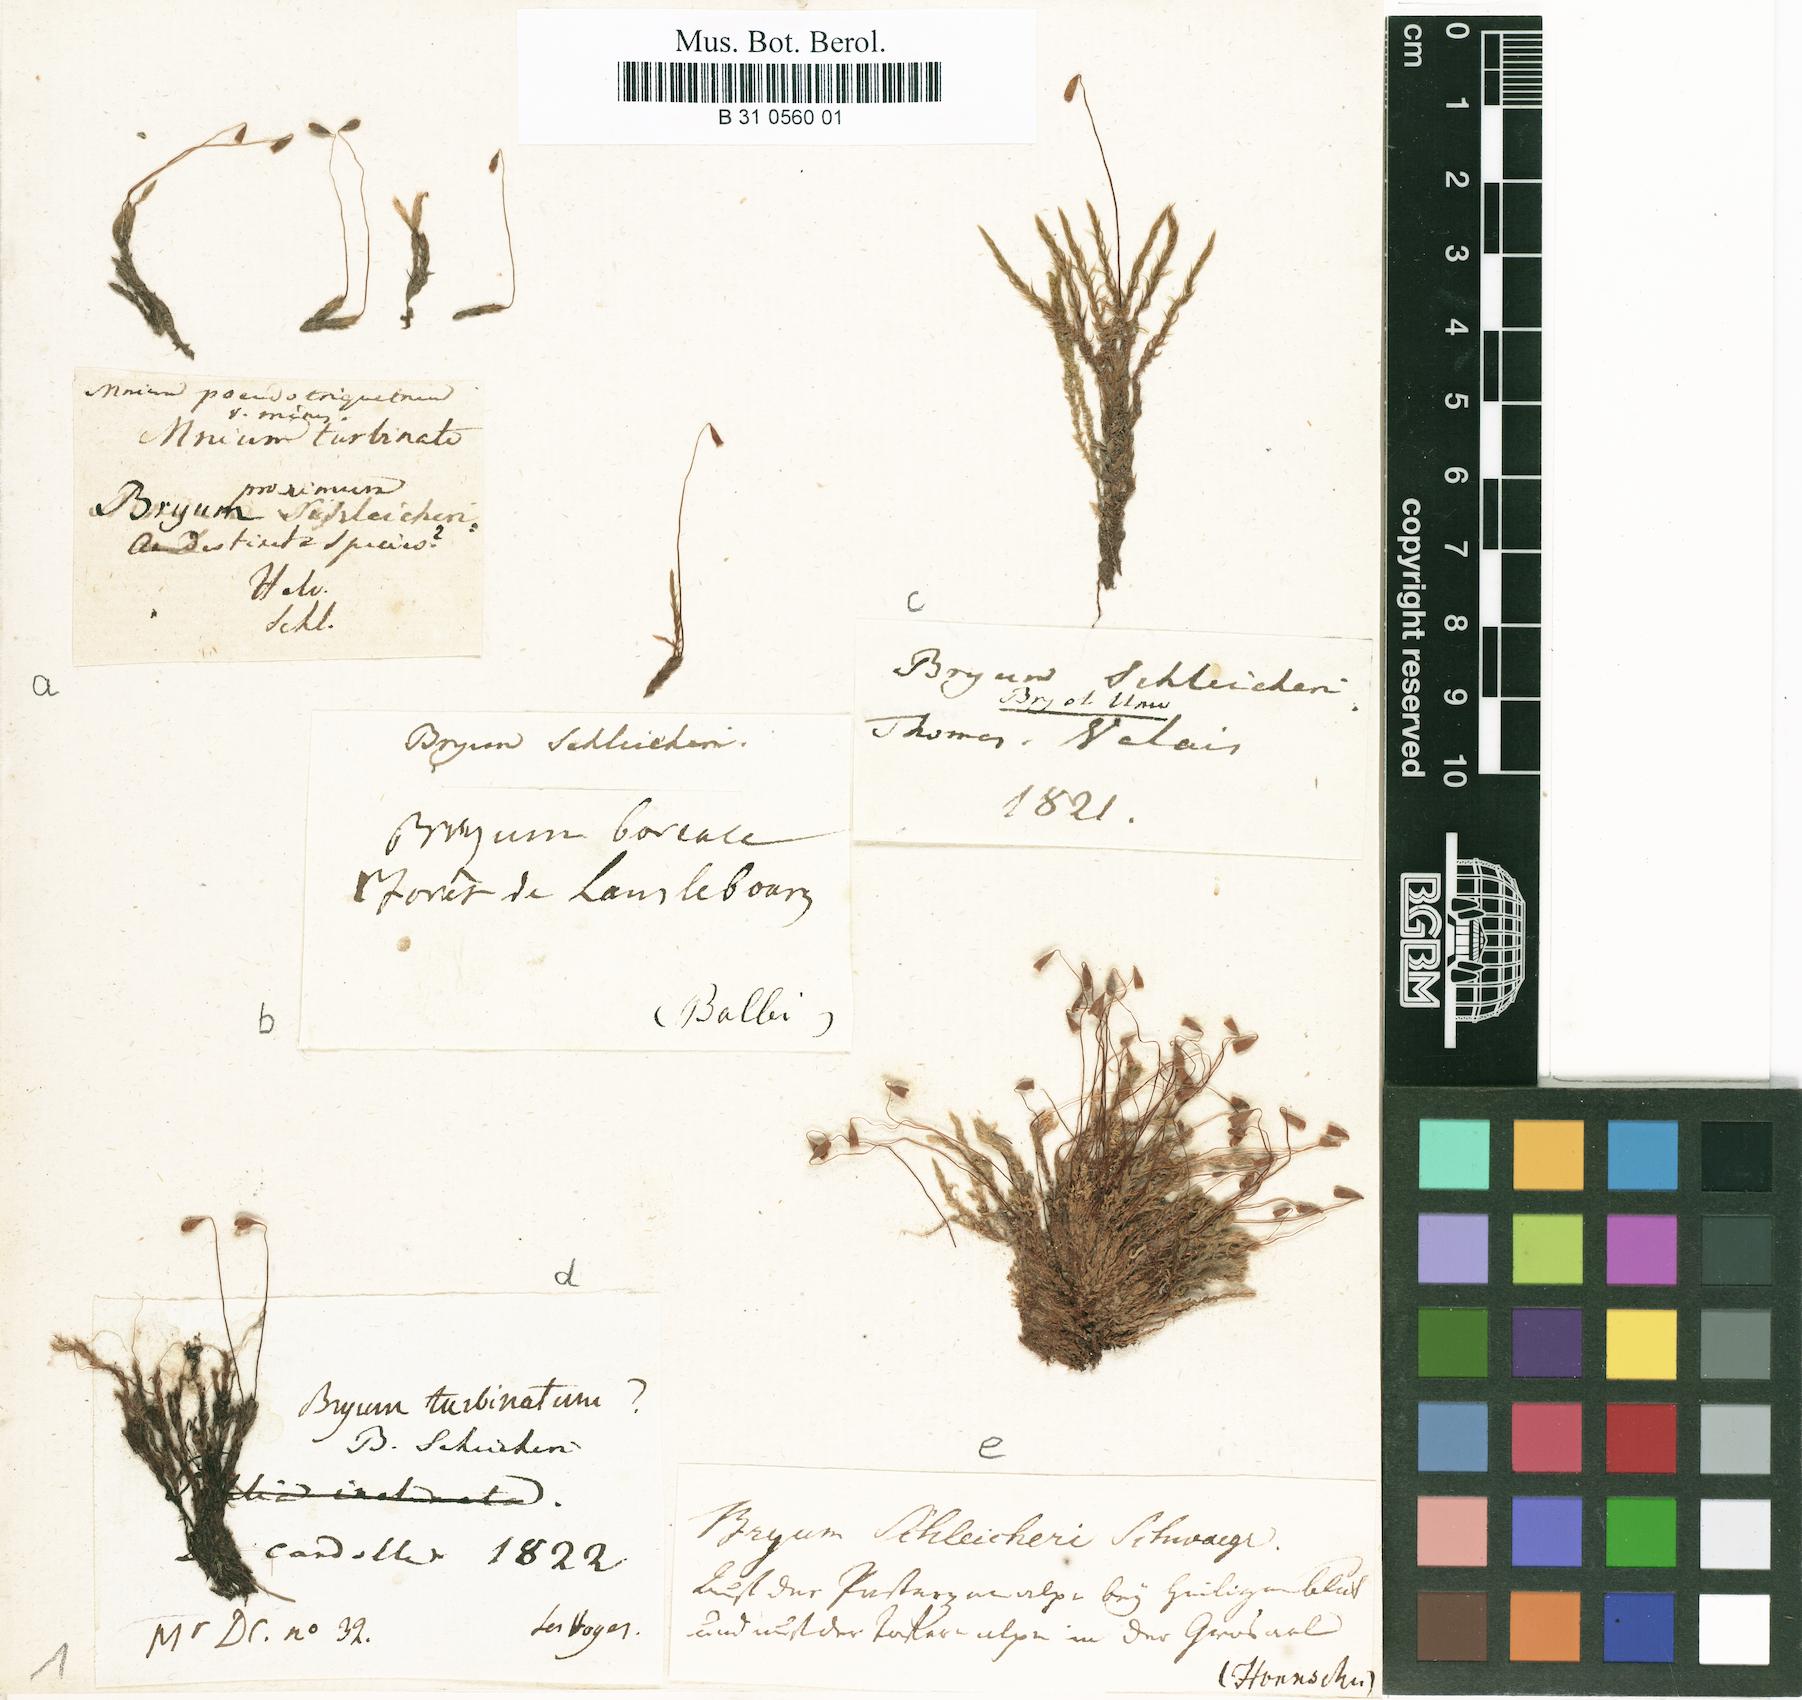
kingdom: Plantae
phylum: Bryophyta
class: Bryopsida
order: Bryales
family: Bryaceae
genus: Ptychostomum
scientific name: Ptychostomum schleicheri
